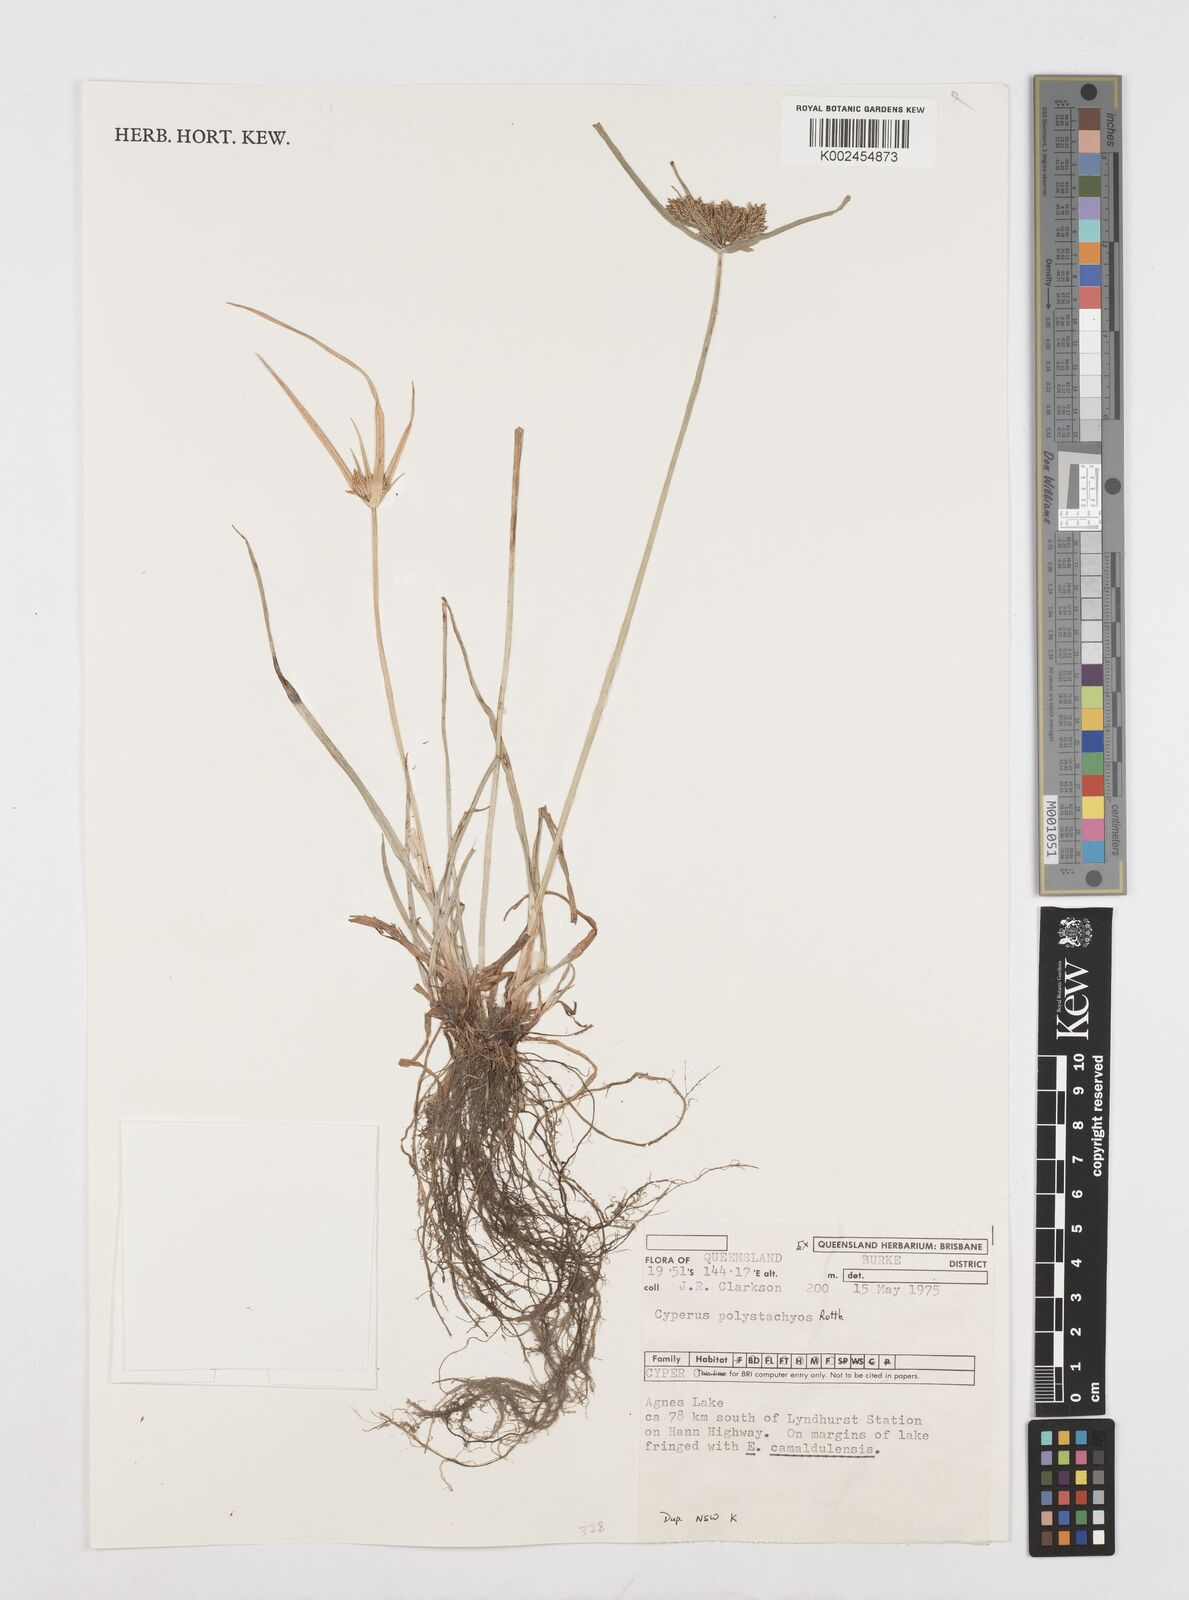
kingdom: Plantae
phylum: Tracheophyta
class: Liliopsida
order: Poales
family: Cyperaceae
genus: Cyperus
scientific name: Cyperus polystachyos
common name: Bunchy flat sedge
